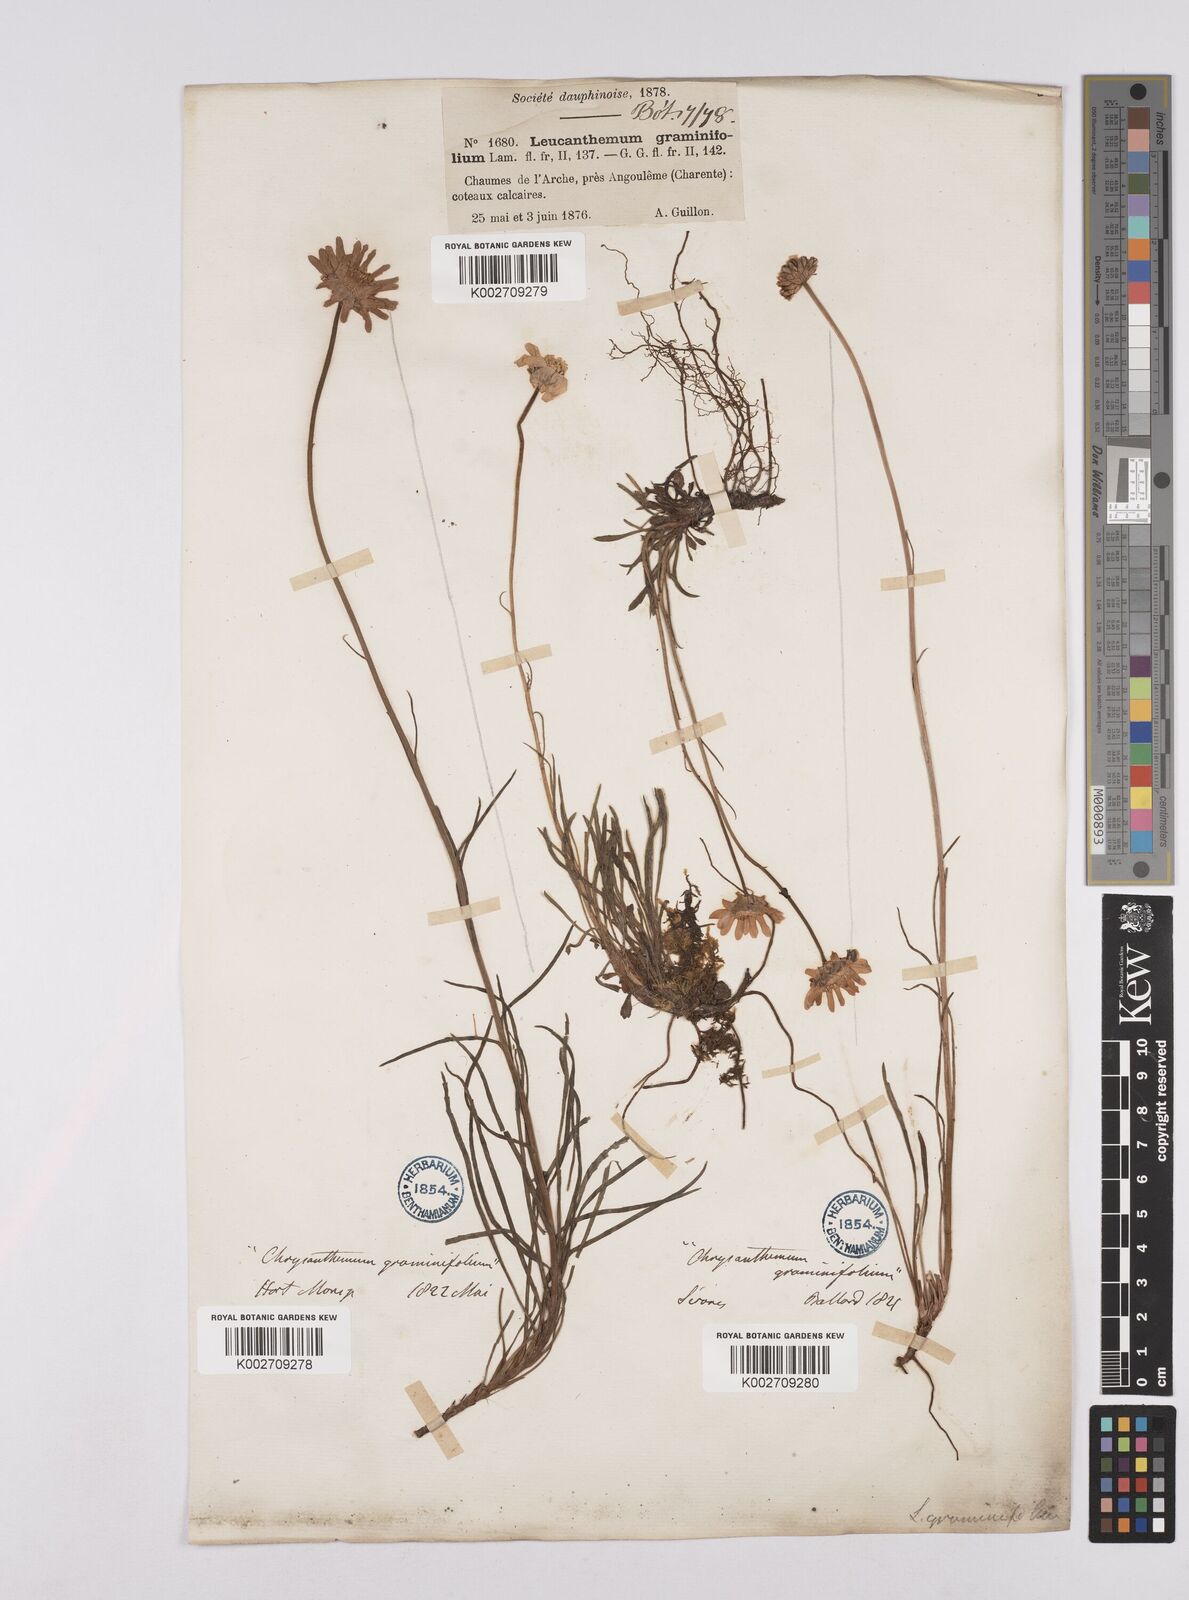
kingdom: Plantae
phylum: Tracheophyta
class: Magnoliopsida
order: Asterales
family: Asteraceae
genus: Leucanthemum
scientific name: Leucanthemum chloroticum
